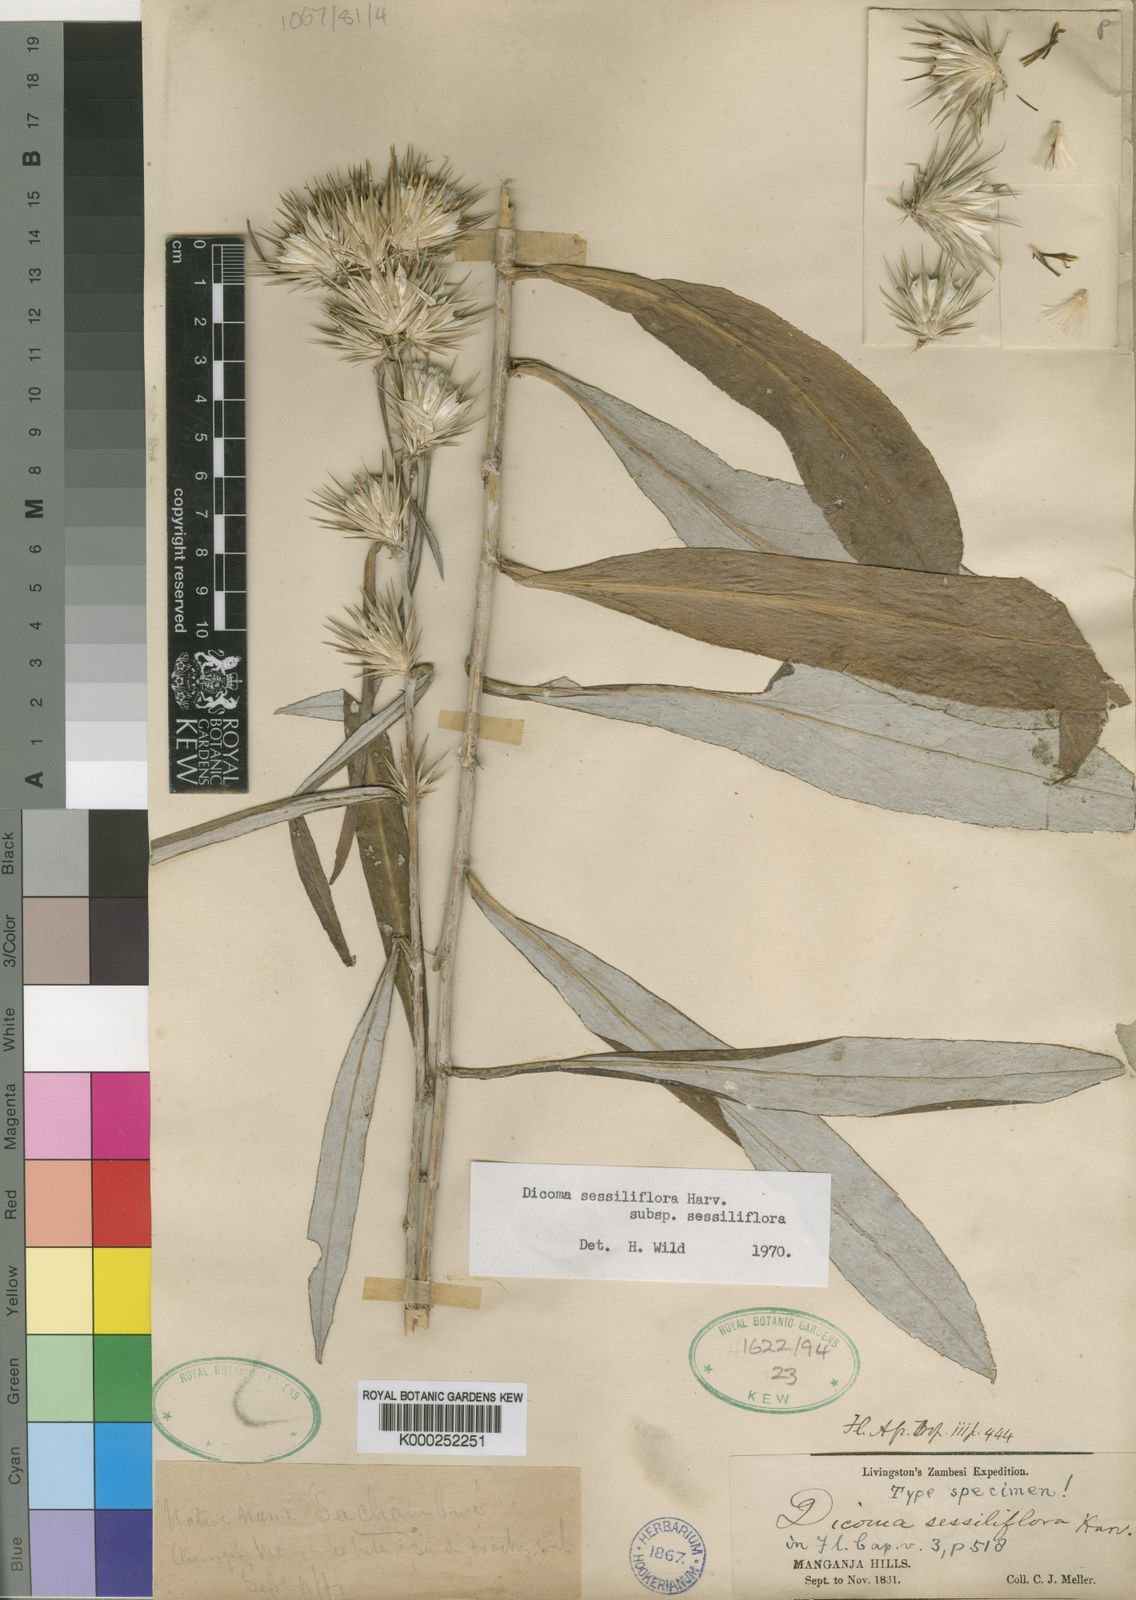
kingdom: Plantae
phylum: Tracheophyta
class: Magnoliopsida
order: Asterales
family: Asteraceae
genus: Macledium
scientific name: Macledium sessiliflorum
